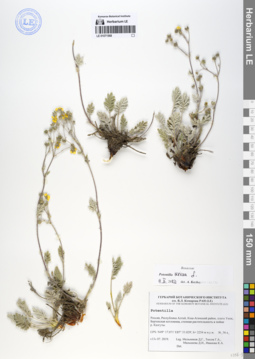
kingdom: Plantae
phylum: Tracheophyta
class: Magnoliopsida
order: Rosales
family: Rosaceae
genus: Potentilla
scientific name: Potentilla sericea
